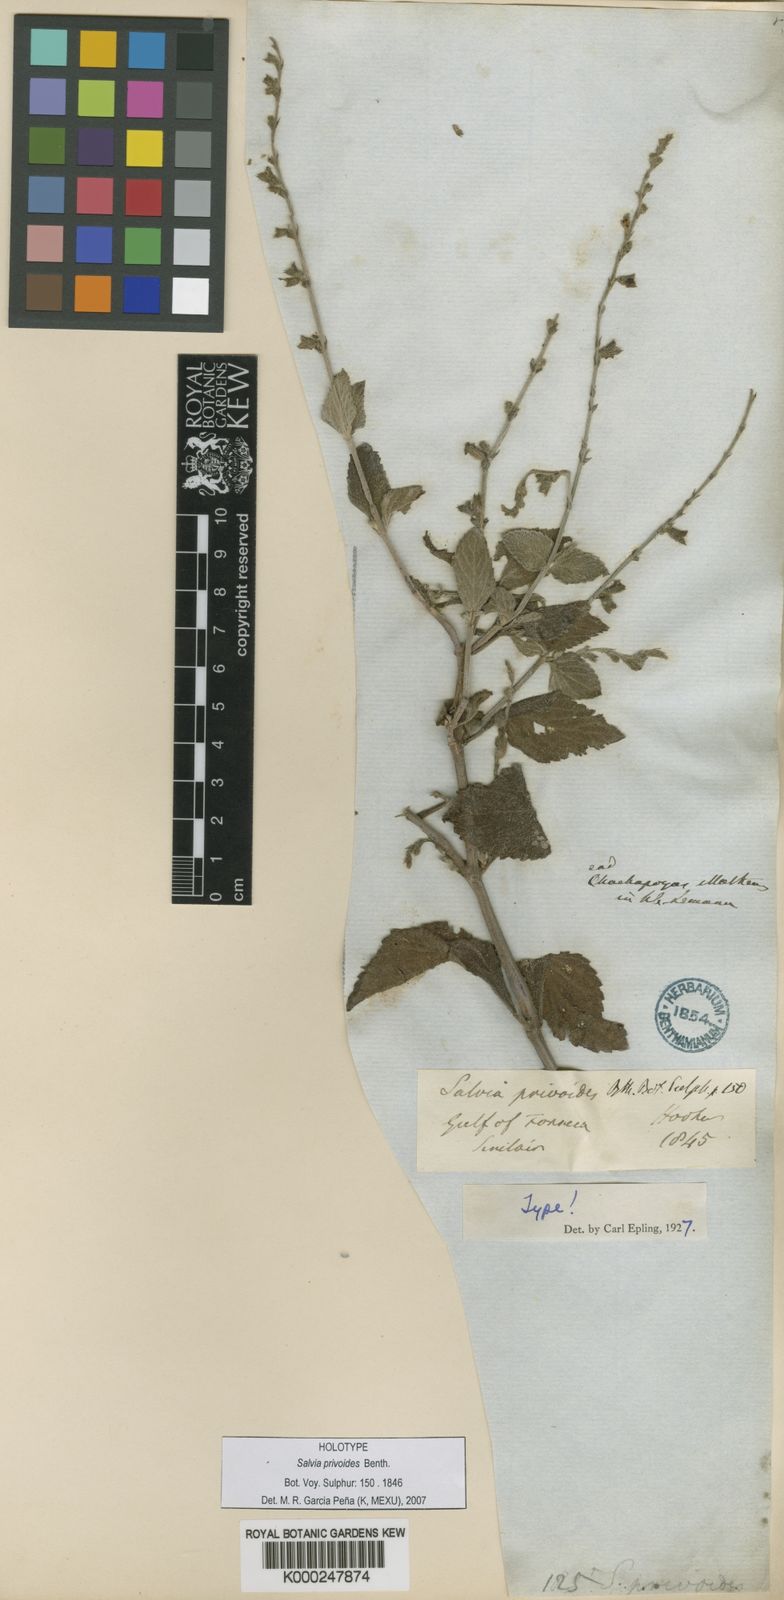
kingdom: Plantae
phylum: Tracheophyta
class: Magnoliopsida
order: Lamiales
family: Lamiaceae
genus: Salvia
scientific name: Salvia misella
